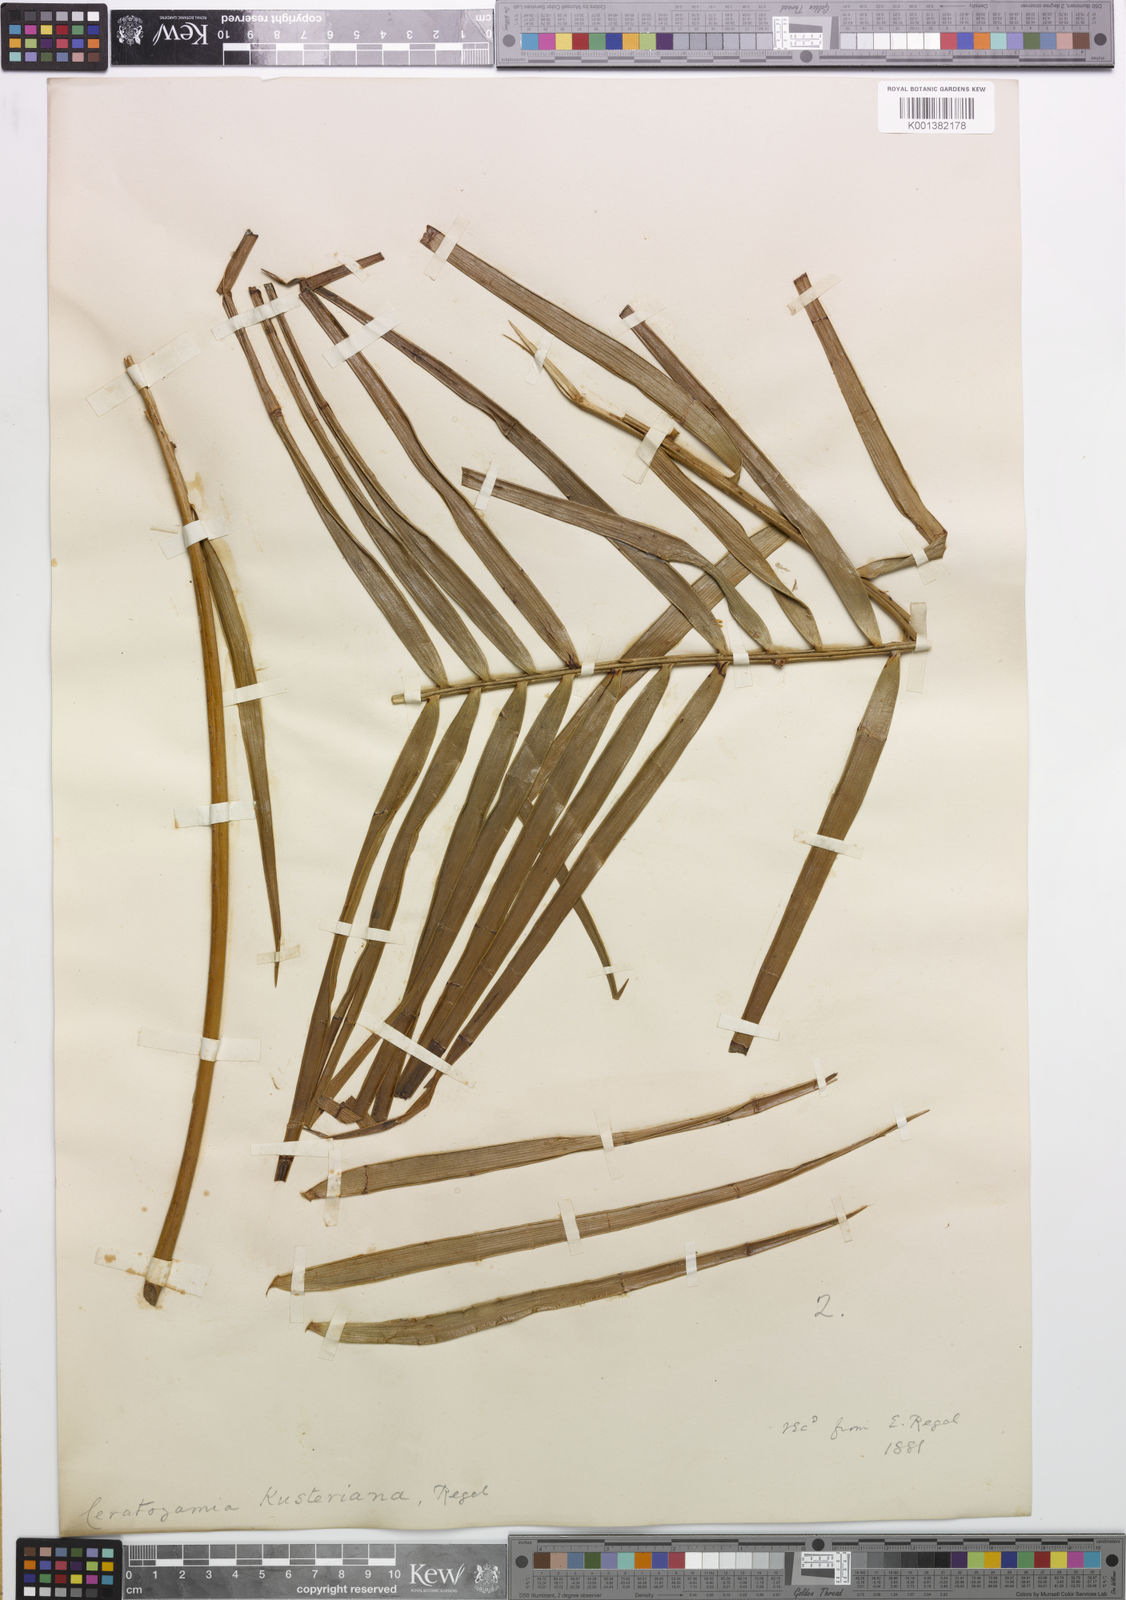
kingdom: Plantae
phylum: Tracheophyta
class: Cycadopsida
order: Cycadales
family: Zamiaceae
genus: Ceratozamia
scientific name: Ceratozamia kuesteriana
